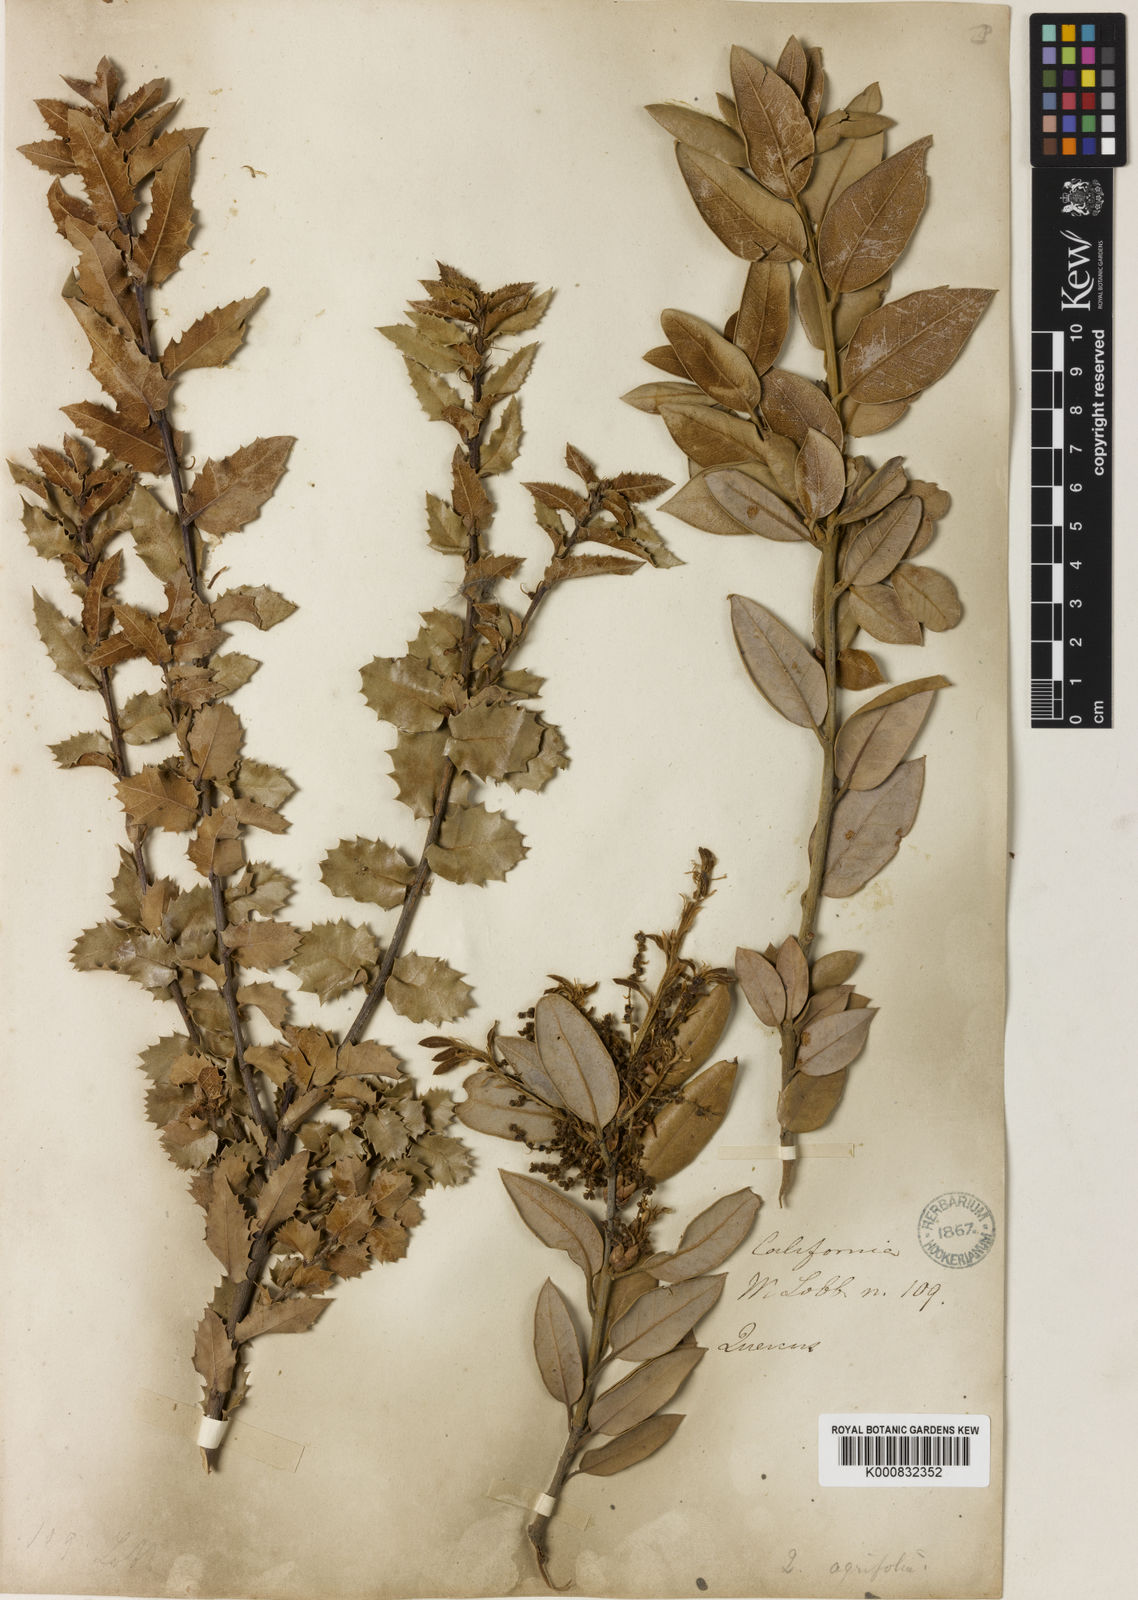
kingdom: Plantae
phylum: Tracheophyta
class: Magnoliopsida
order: Fagales
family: Fagaceae
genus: Quercus
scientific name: Quercus chrysolepis
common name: Canyon live oak
